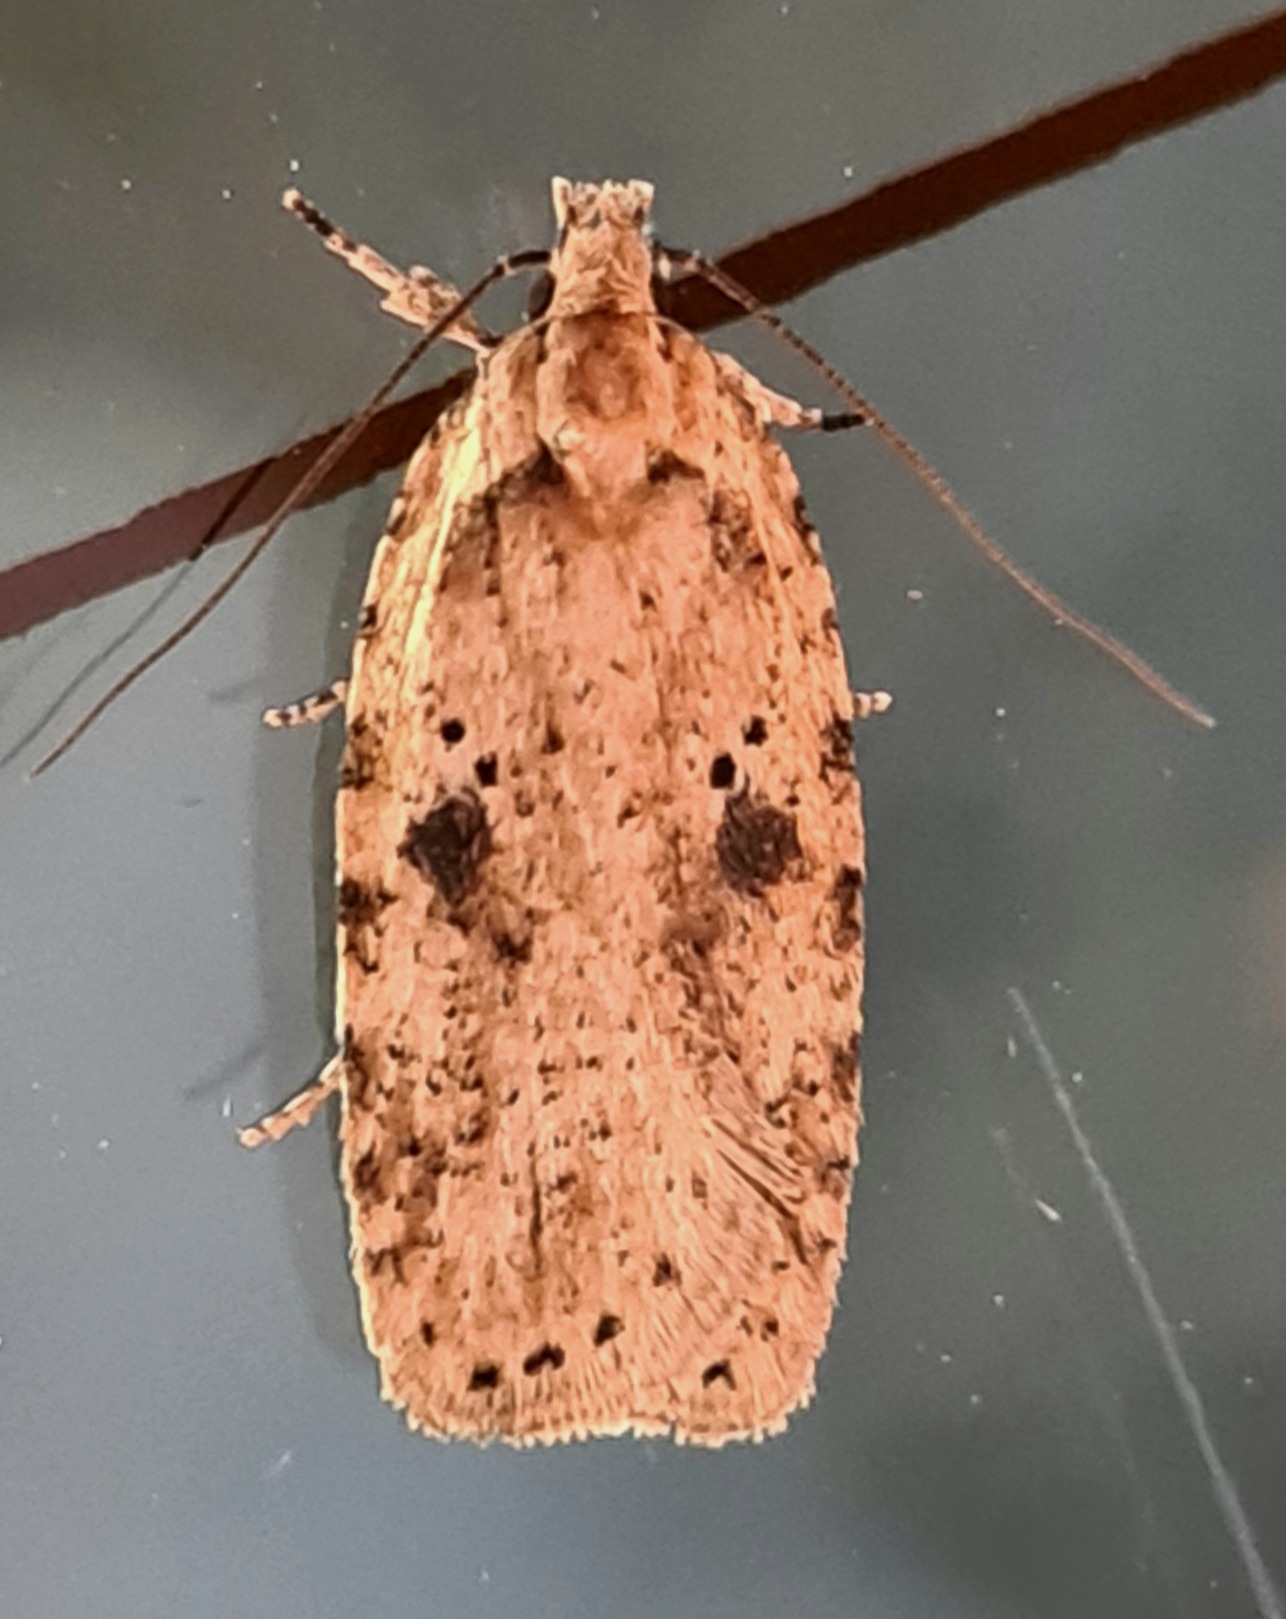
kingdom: Animalia
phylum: Arthropoda
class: Insecta
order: Lepidoptera
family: Depressariidae
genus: Agonopterix
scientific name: Agonopterix arenella
